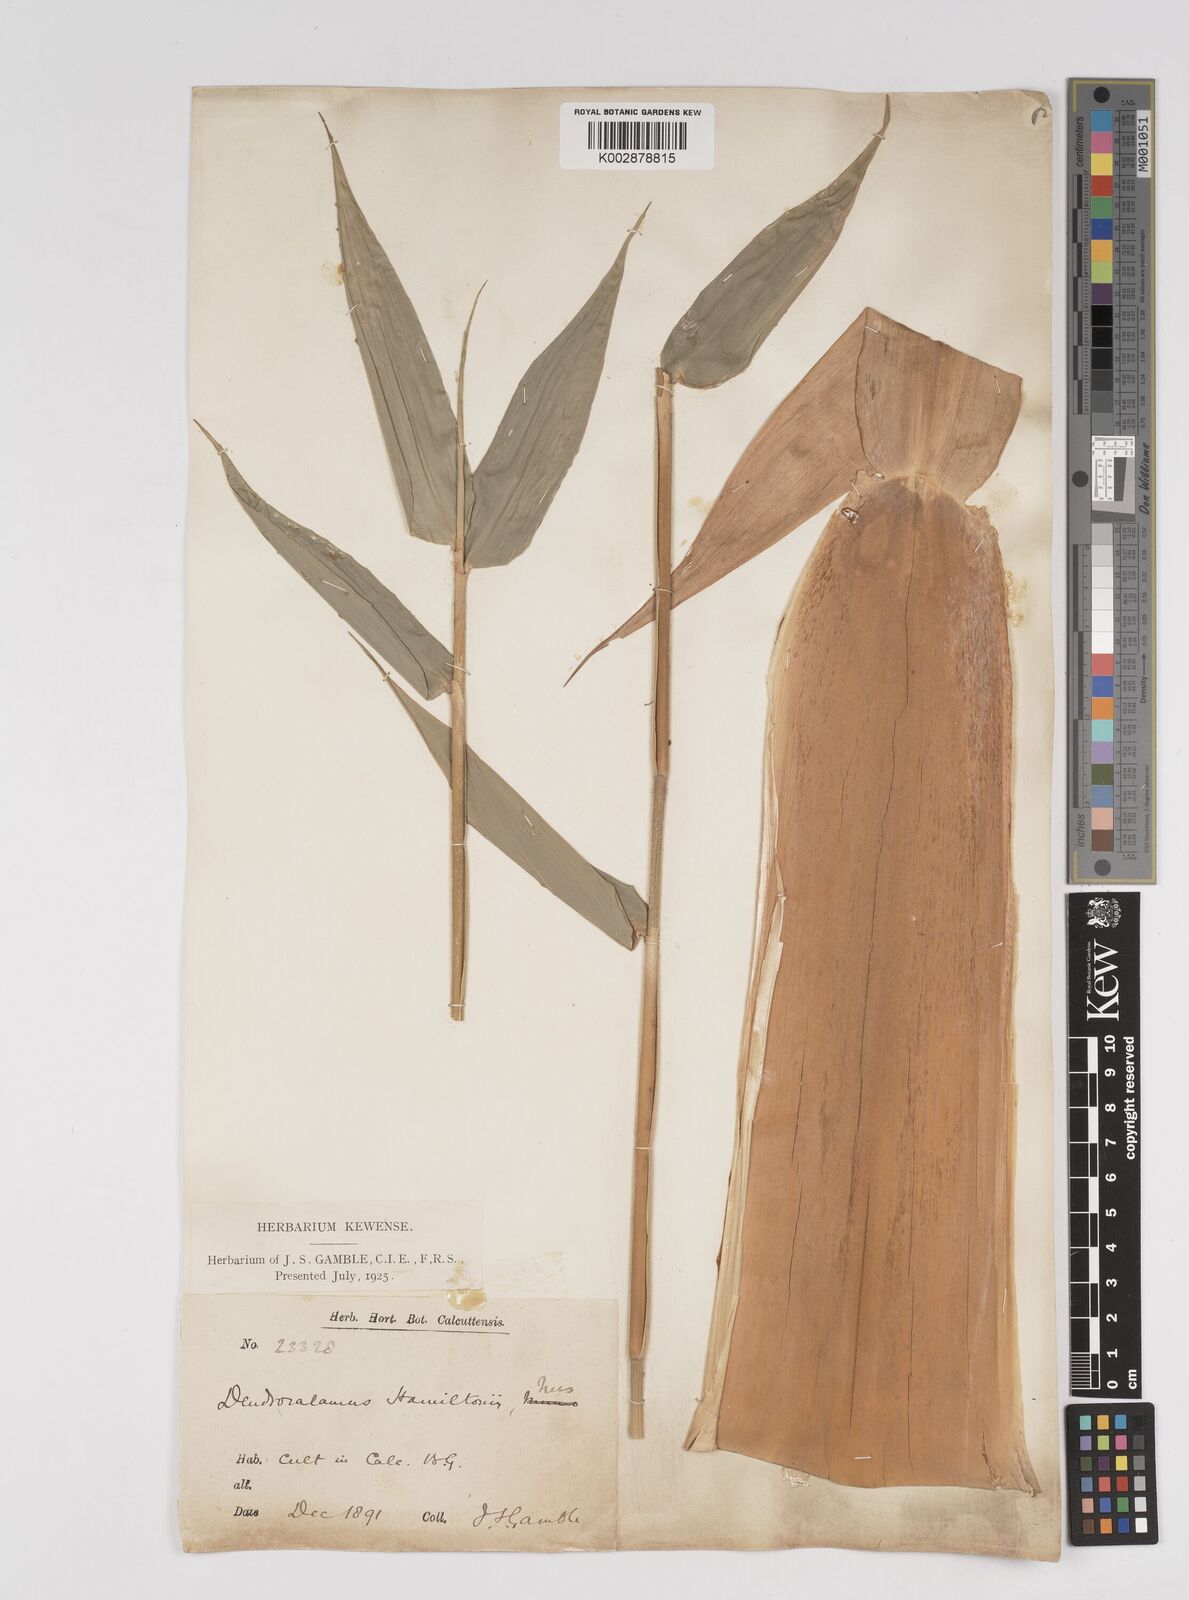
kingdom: Plantae
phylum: Tracheophyta
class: Liliopsida
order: Poales
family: Poaceae
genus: Dendrocalamus
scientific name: Dendrocalamus hamiltonii
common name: Tama bamboo
